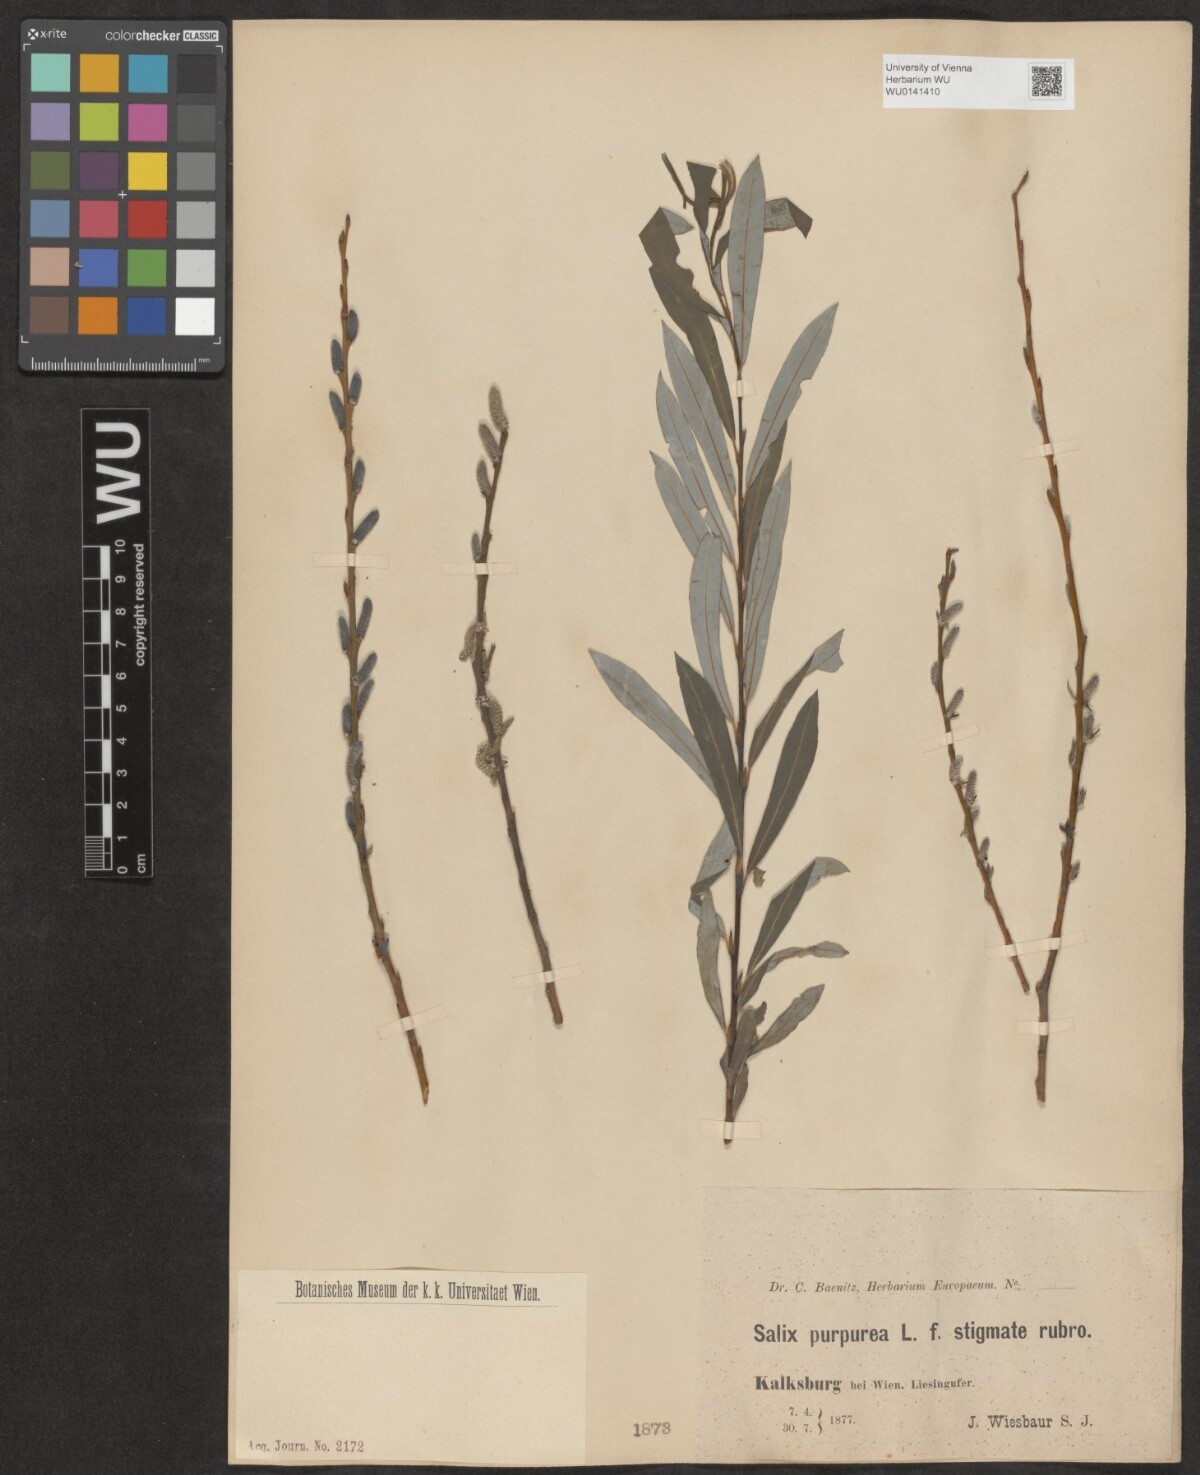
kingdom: Plantae
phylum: Tracheophyta
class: Magnoliopsida
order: Malpighiales
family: Salicaceae
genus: Salix
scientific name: Salix purpurea
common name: Purple willow
